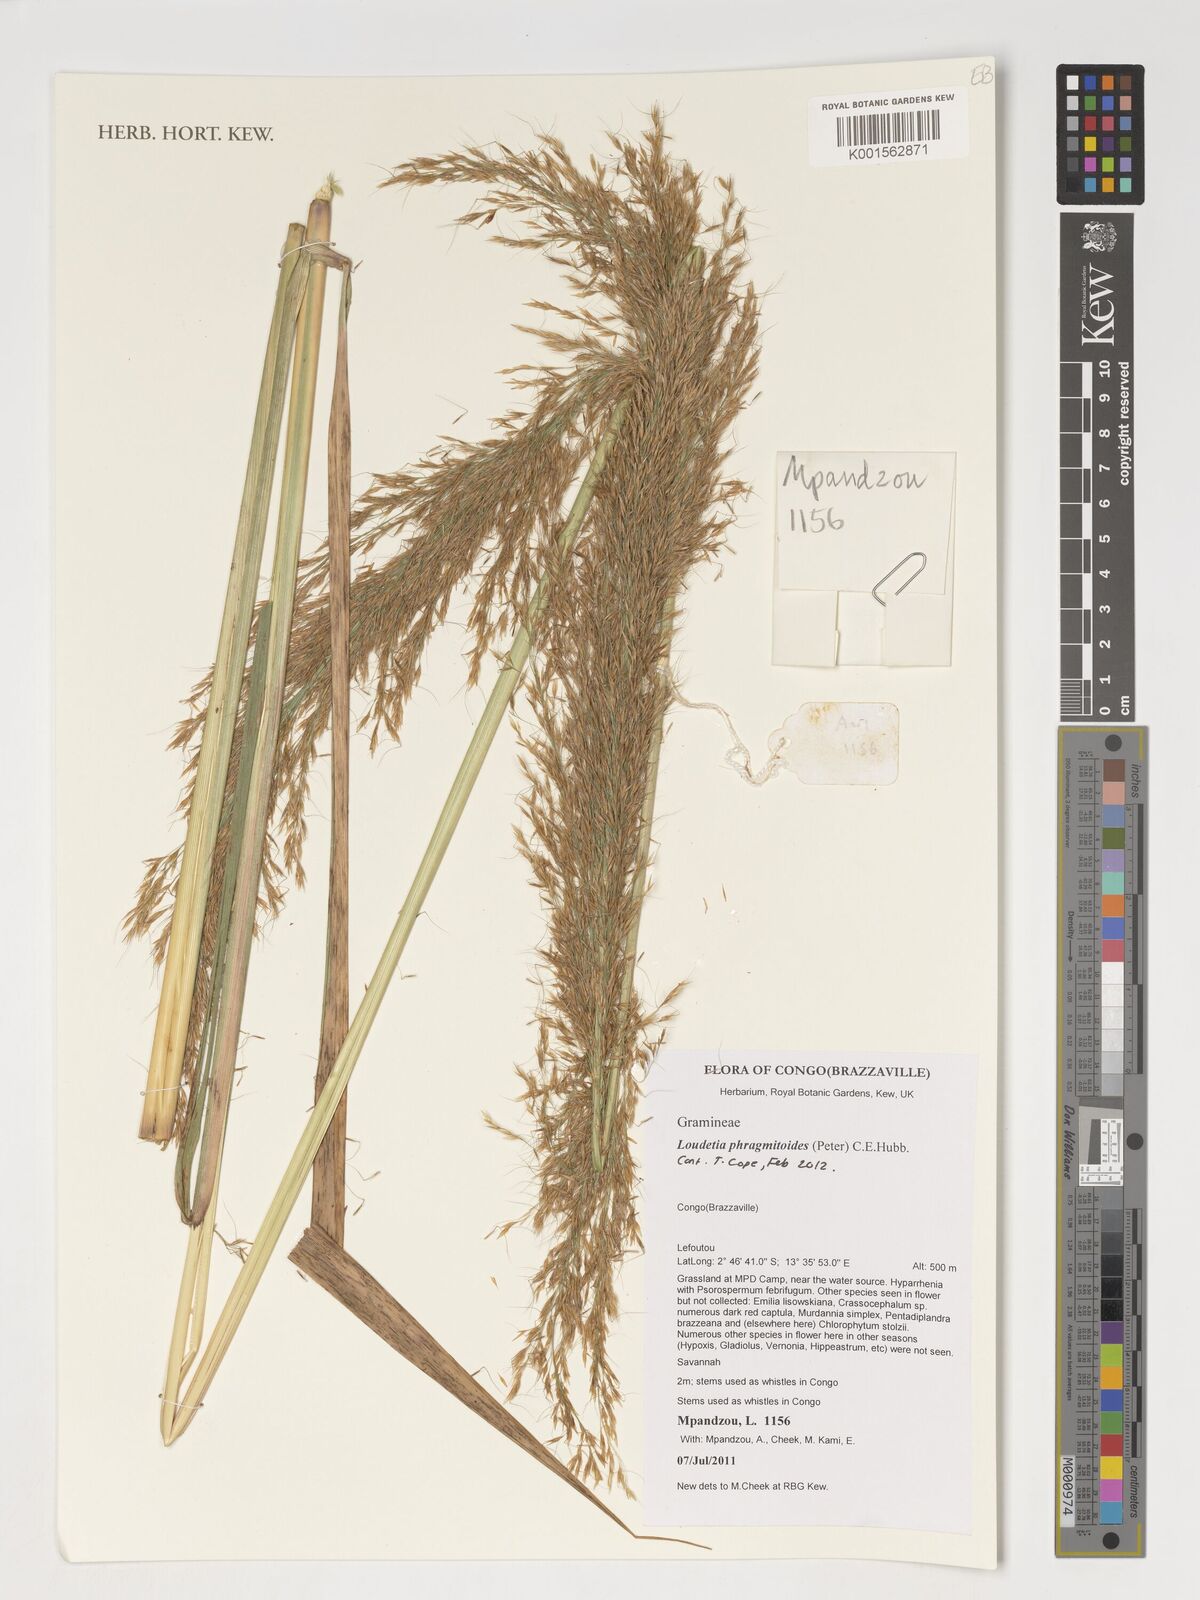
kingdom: Plantae
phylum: Tracheophyta
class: Liliopsida
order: Poales
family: Poaceae
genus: Loudetia
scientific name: Loudetia phragmitoides
